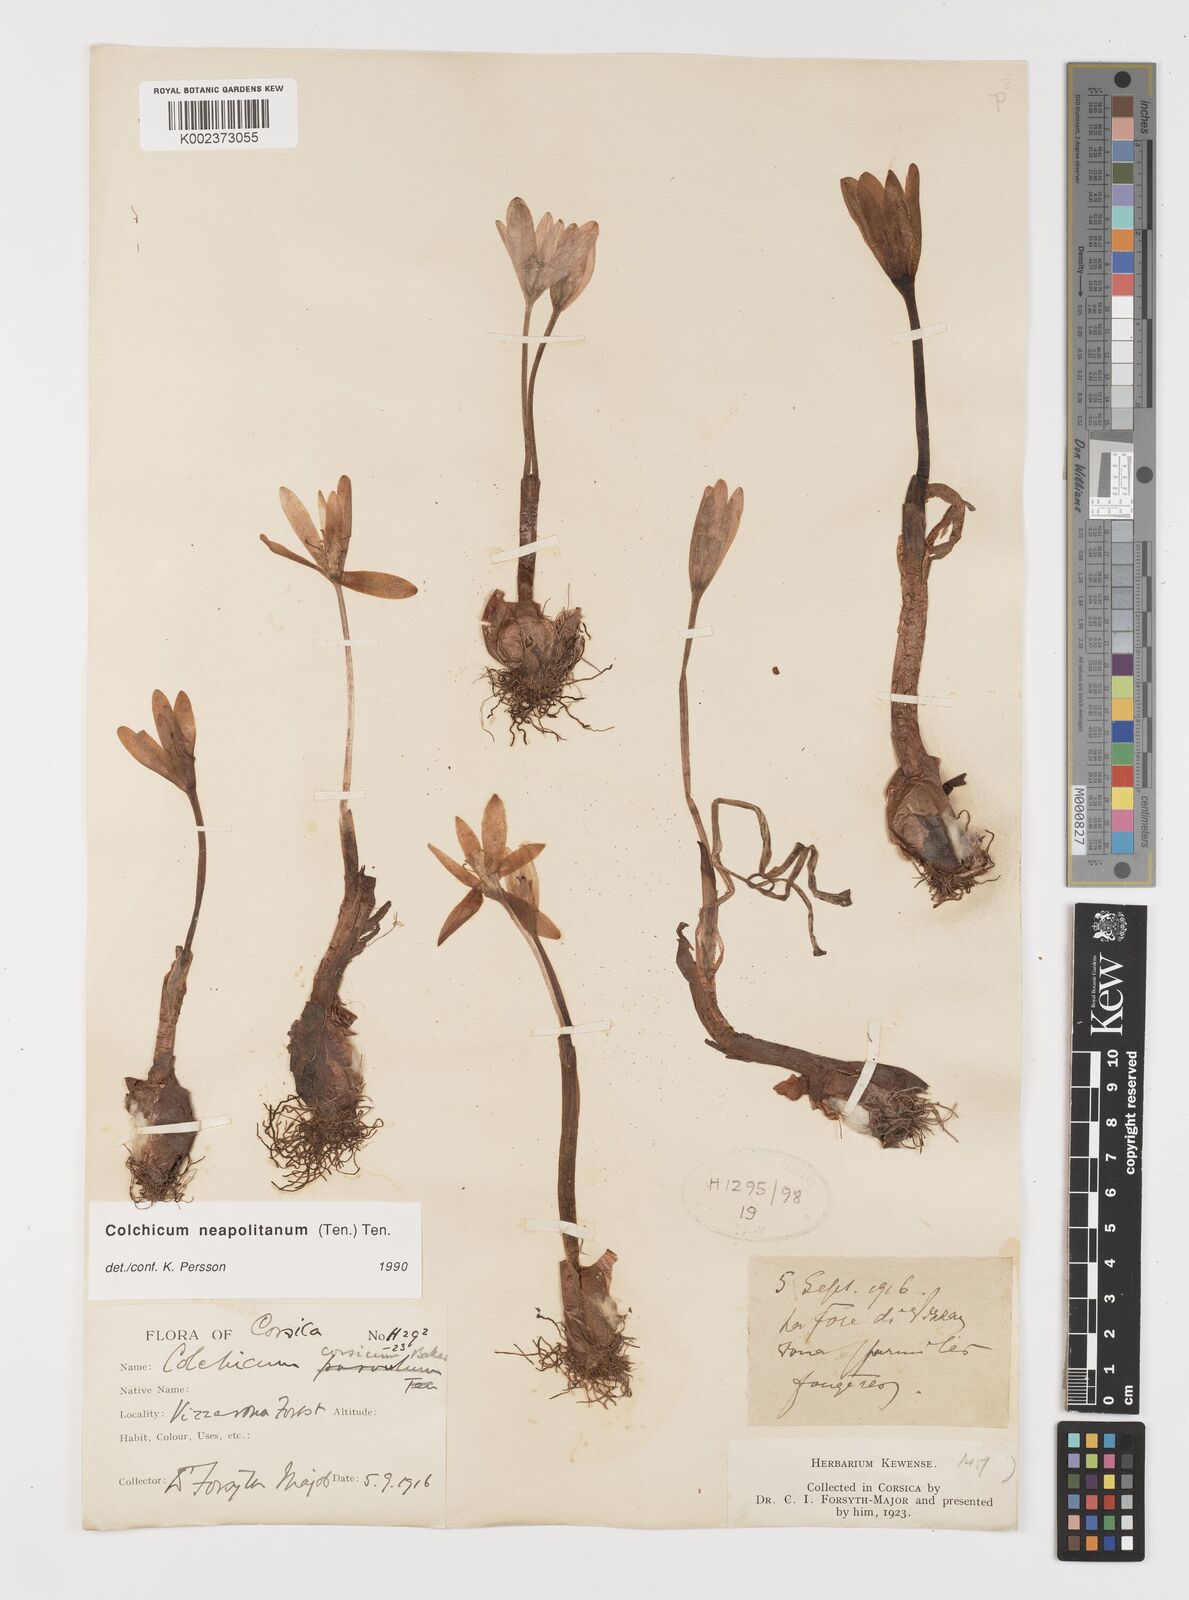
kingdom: Plantae
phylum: Tracheophyta
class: Liliopsida
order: Liliales
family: Colchicaceae
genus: Colchicum
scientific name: Colchicum neapolitanum
